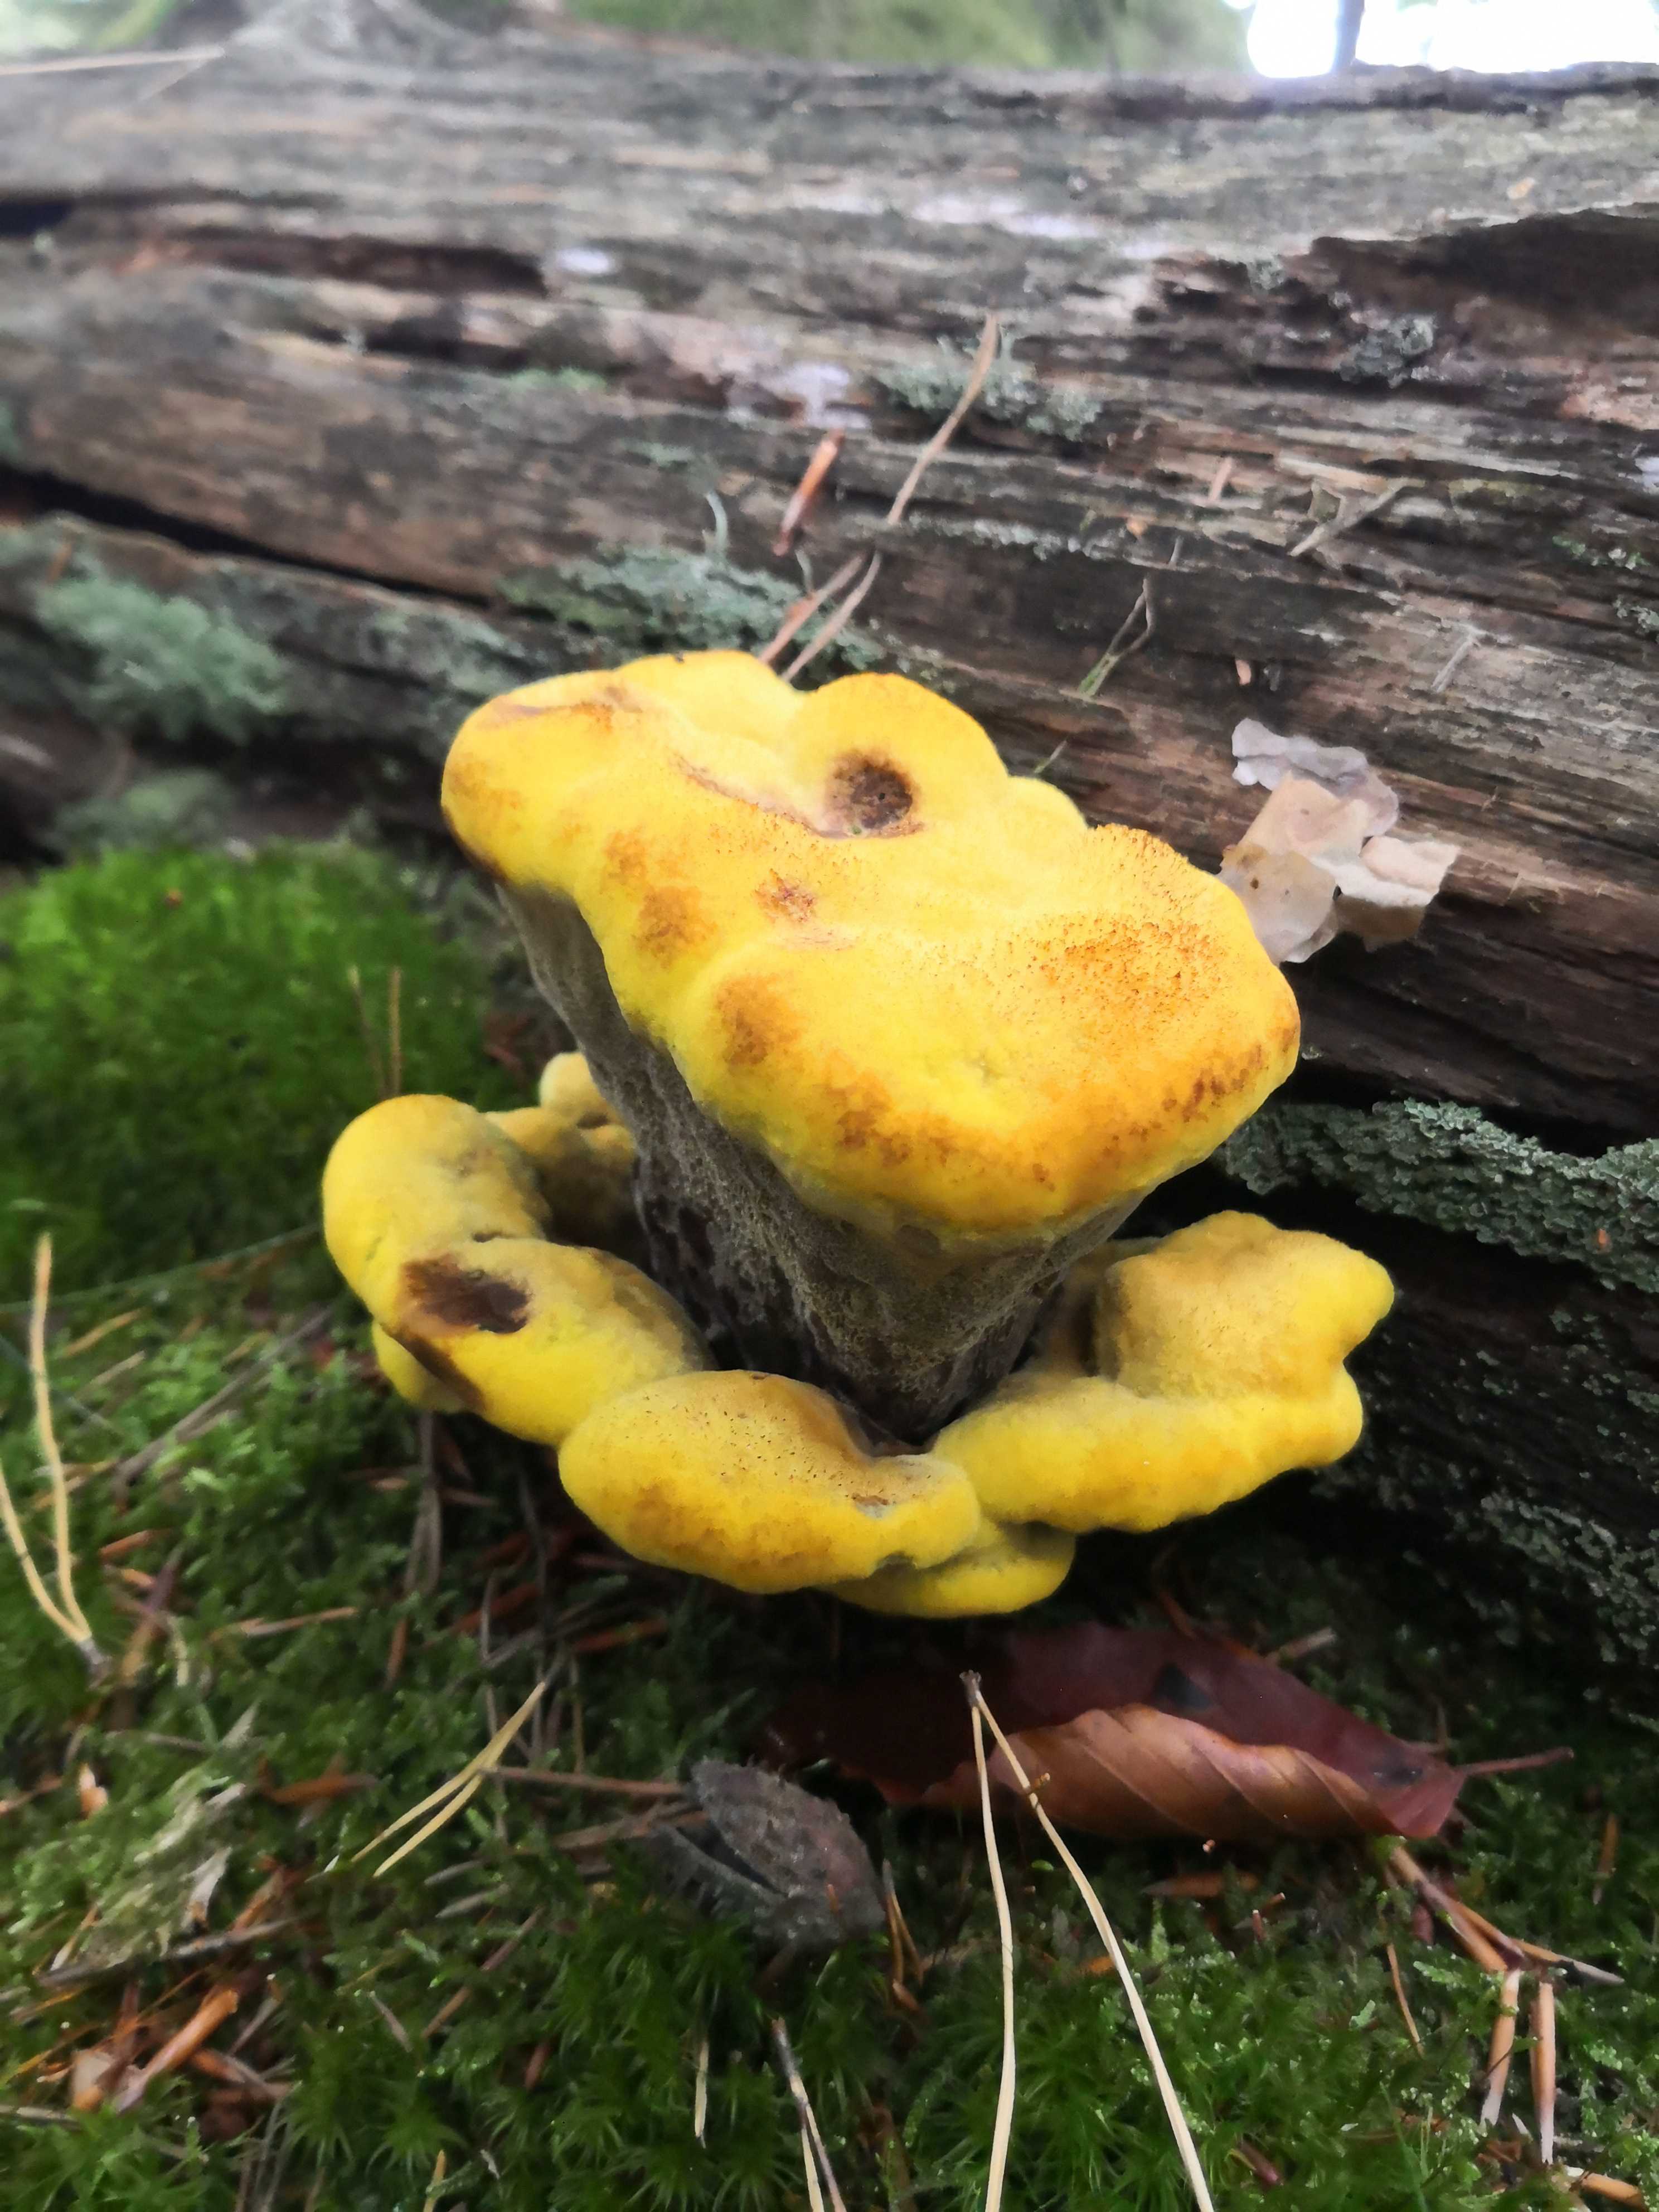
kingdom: Fungi
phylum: Basidiomycota
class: Agaricomycetes
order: Polyporales
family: Laetiporaceae
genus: Phaeolus
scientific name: Phaeolus schweinitzii
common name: brunporesvamp
